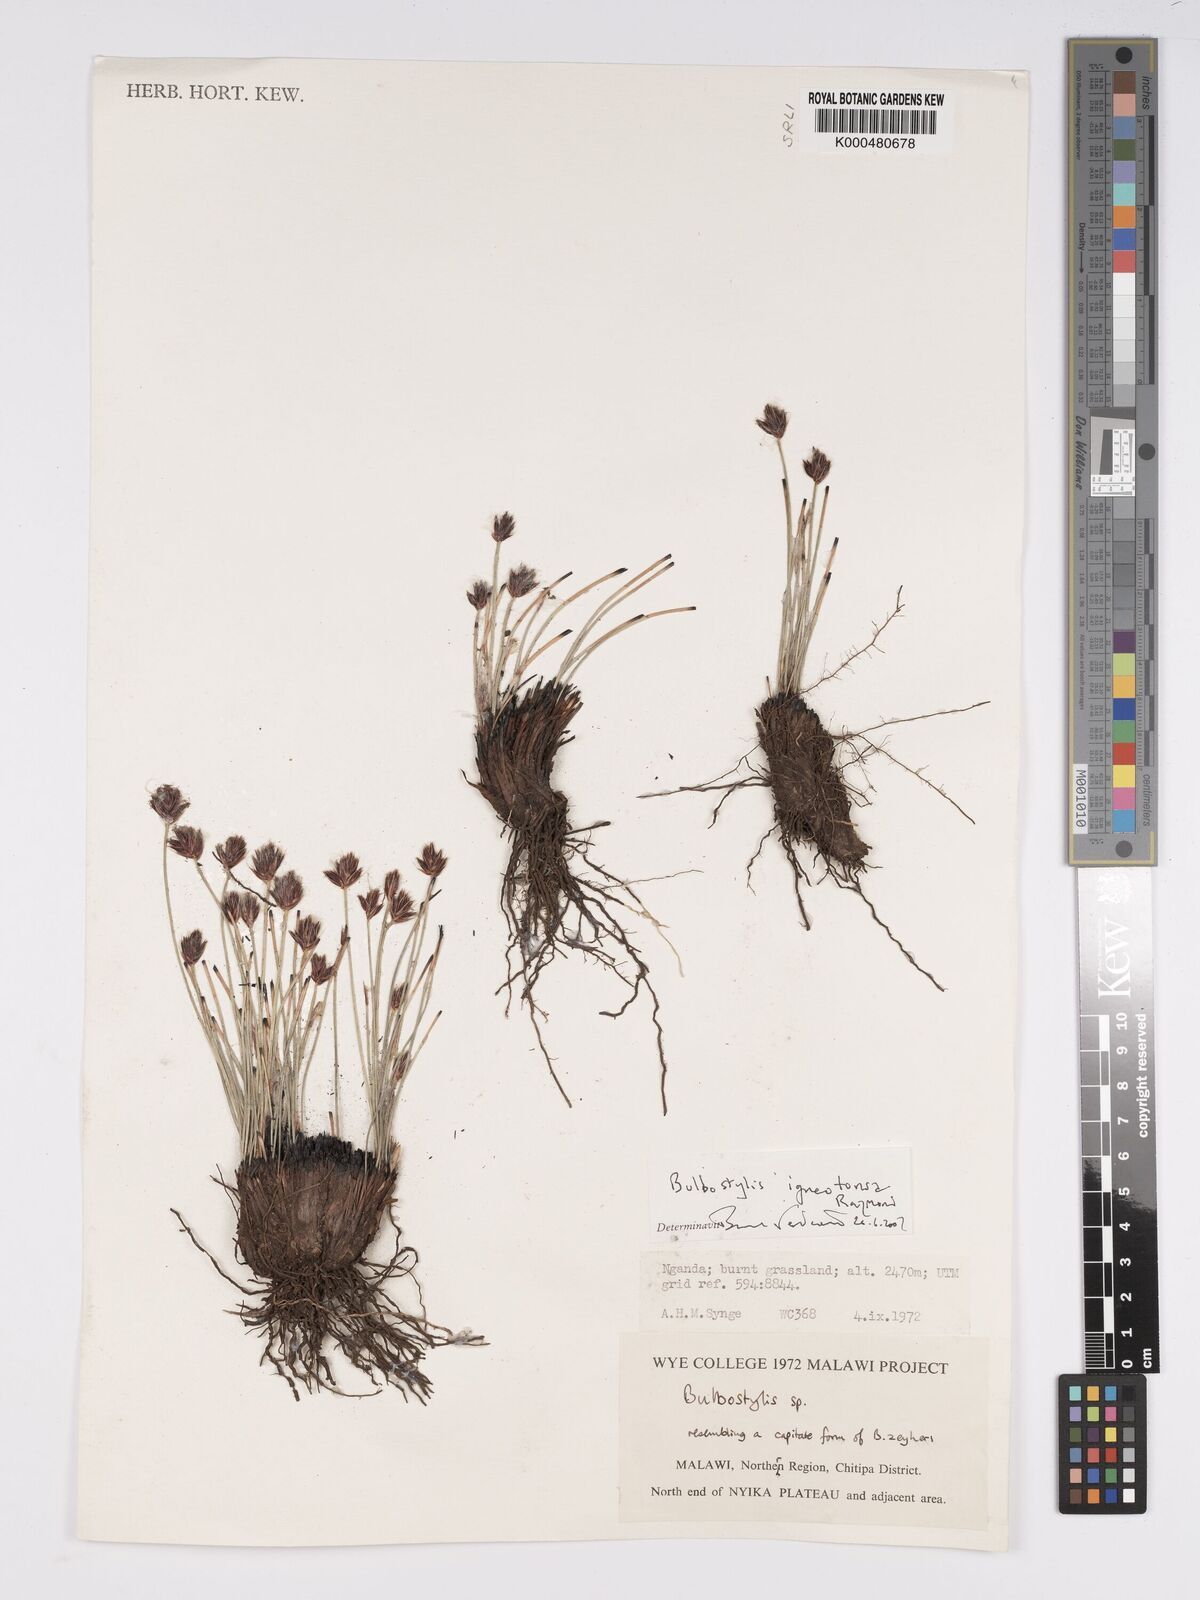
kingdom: Plantae
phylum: Tracheophyta
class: Liliopsida
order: Poales
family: Cyperaceae
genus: Bulbostylis
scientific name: Bulbostylis igneotonsa
